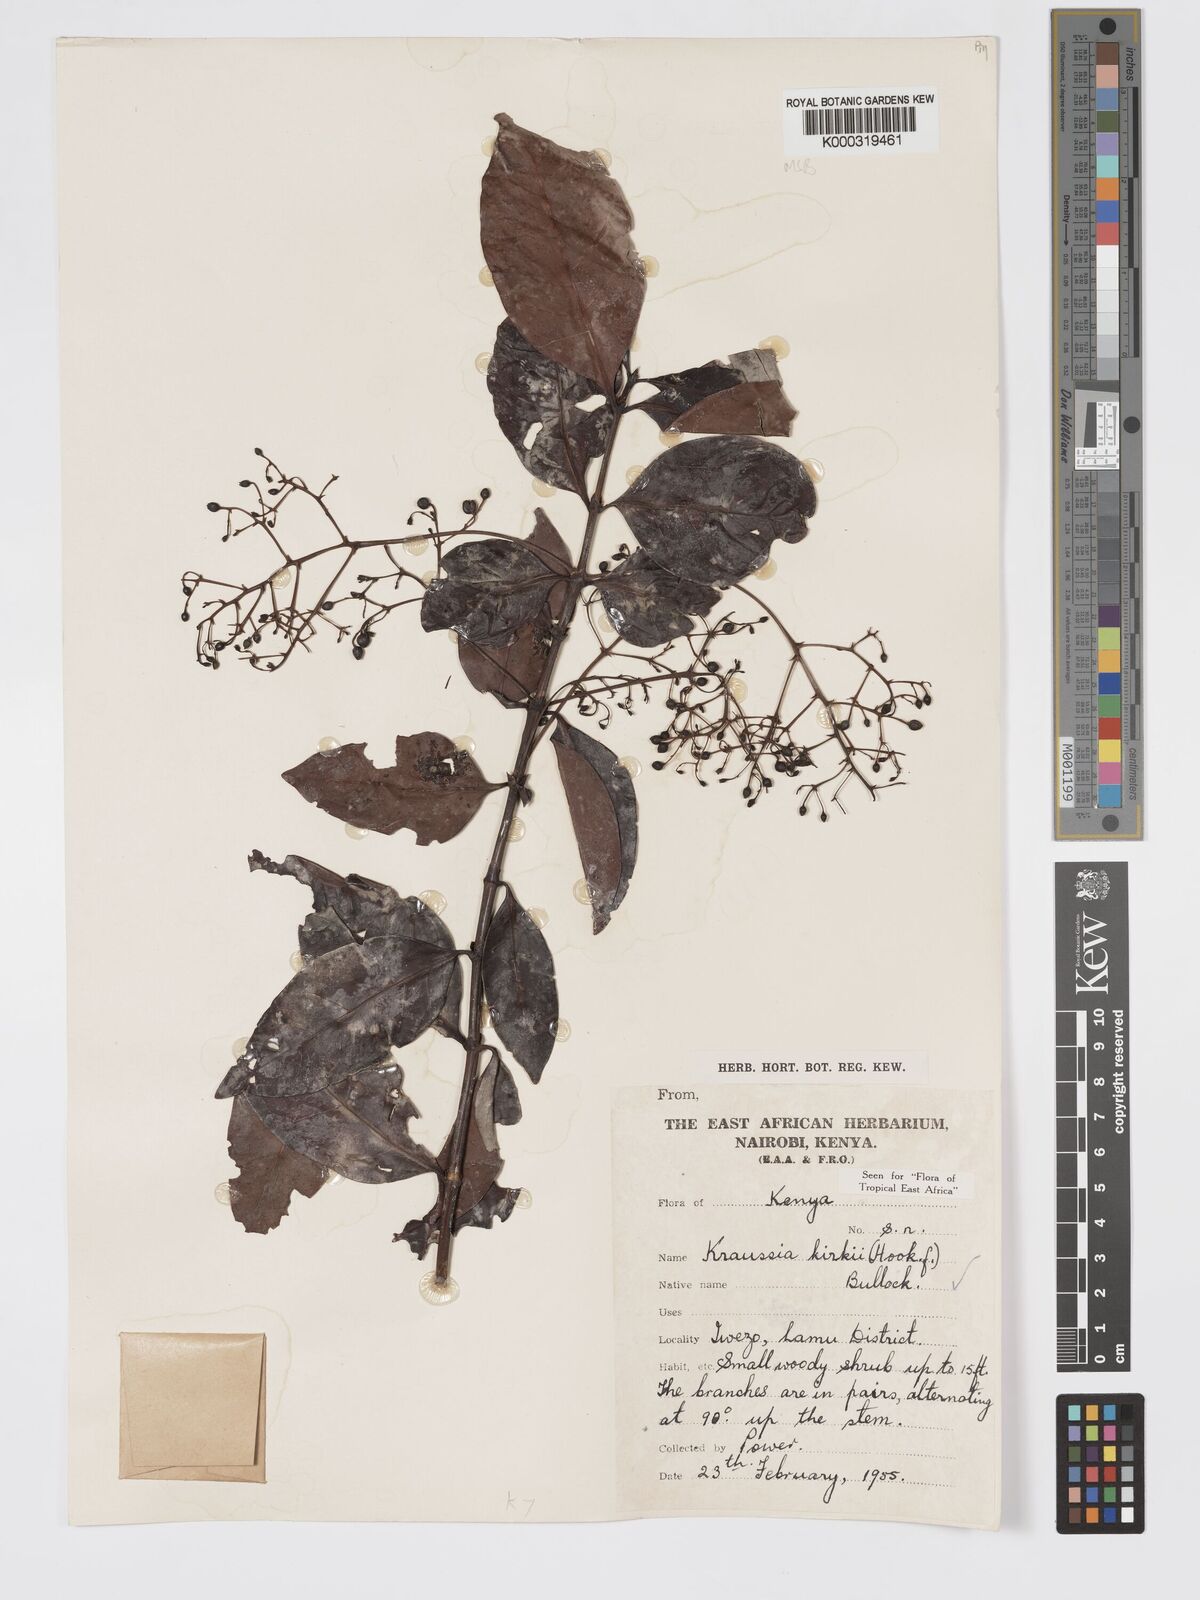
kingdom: Plantae
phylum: Tracheophyta
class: Magnoliopsida
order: Gentianales
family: Rubiaceae
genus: Kraussia
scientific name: Kraussia kirkii
